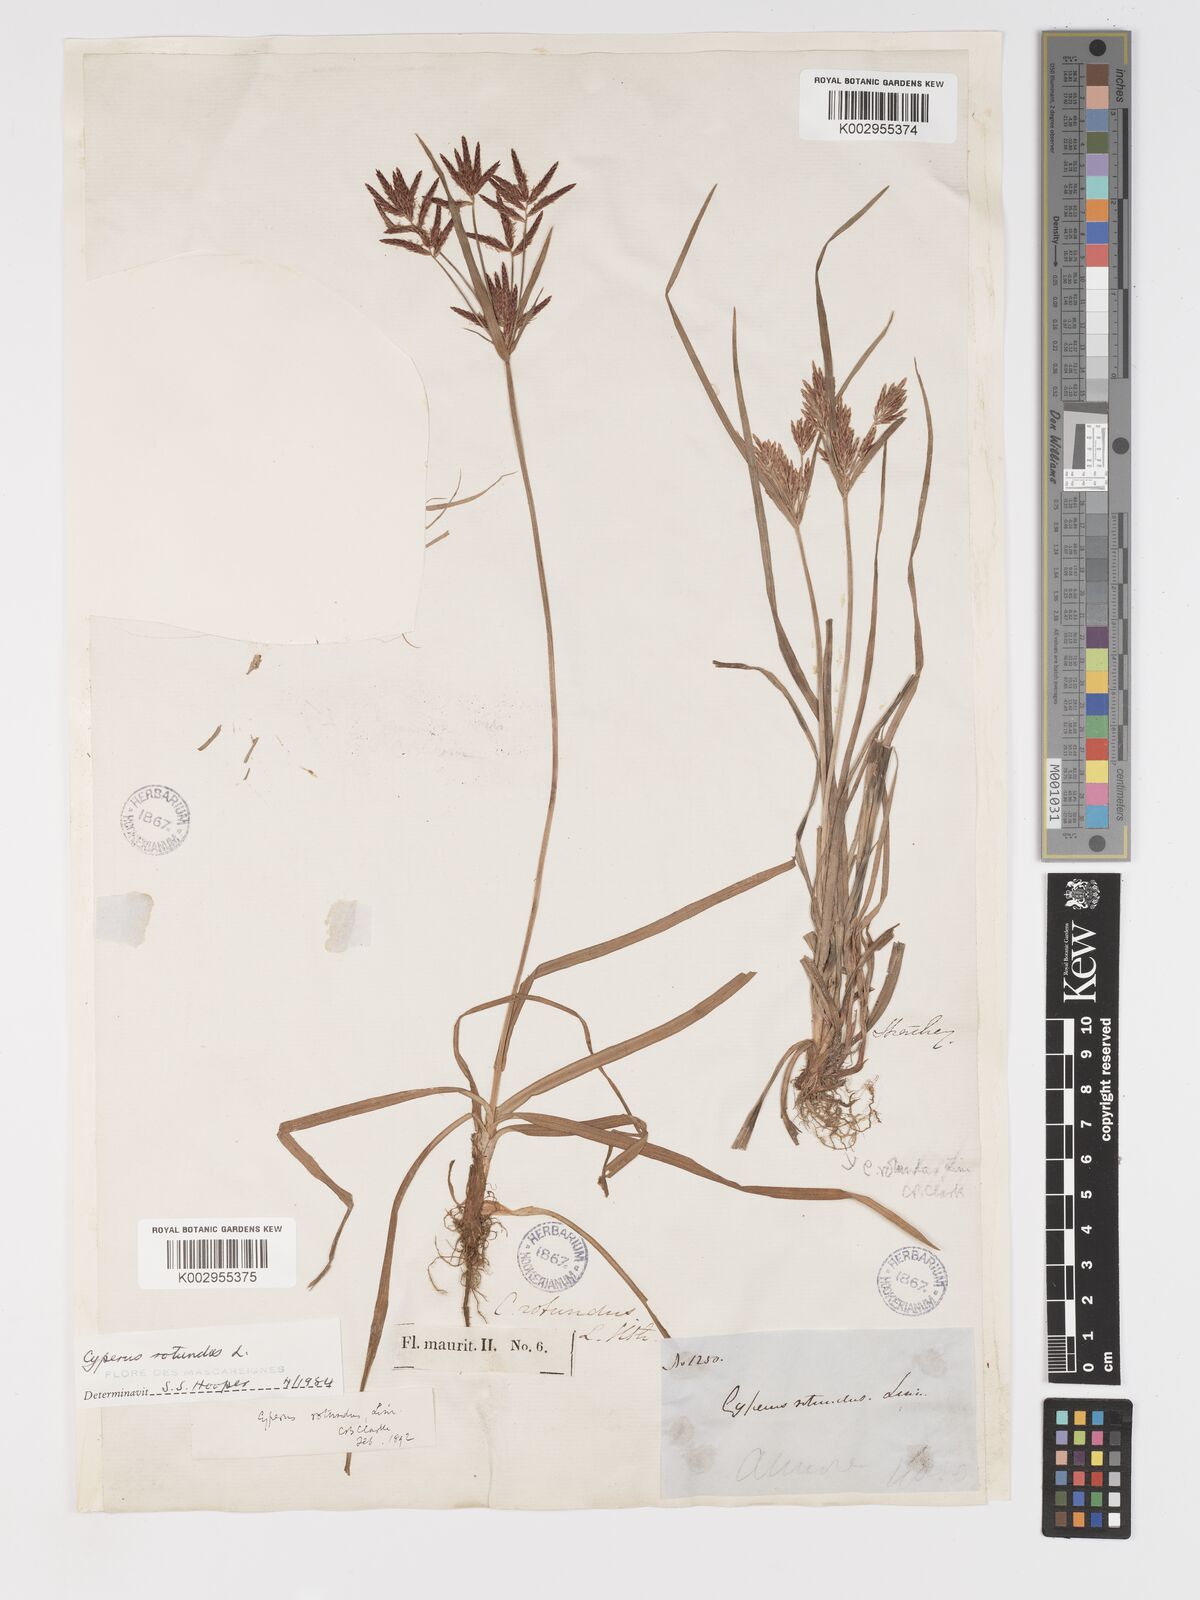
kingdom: Plantae
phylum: Tracheophyta
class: Liliopsida
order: Poales
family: Cyperaceae
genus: Cyperus
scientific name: Cyperus rotundus
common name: Nutgrass
